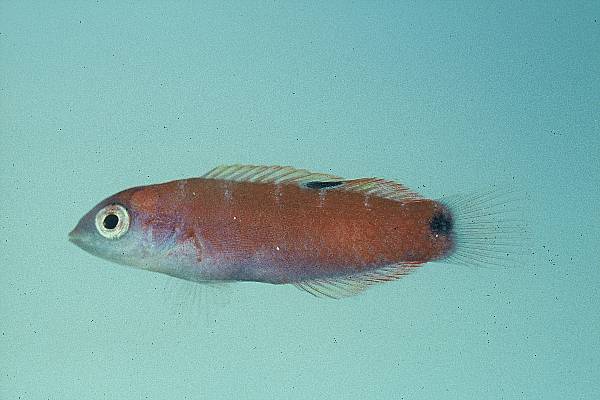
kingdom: Animalia
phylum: Chordata
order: Perciformes
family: Labridae
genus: Thalassoma
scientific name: Thalassoma lunare
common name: Blue wrasse
